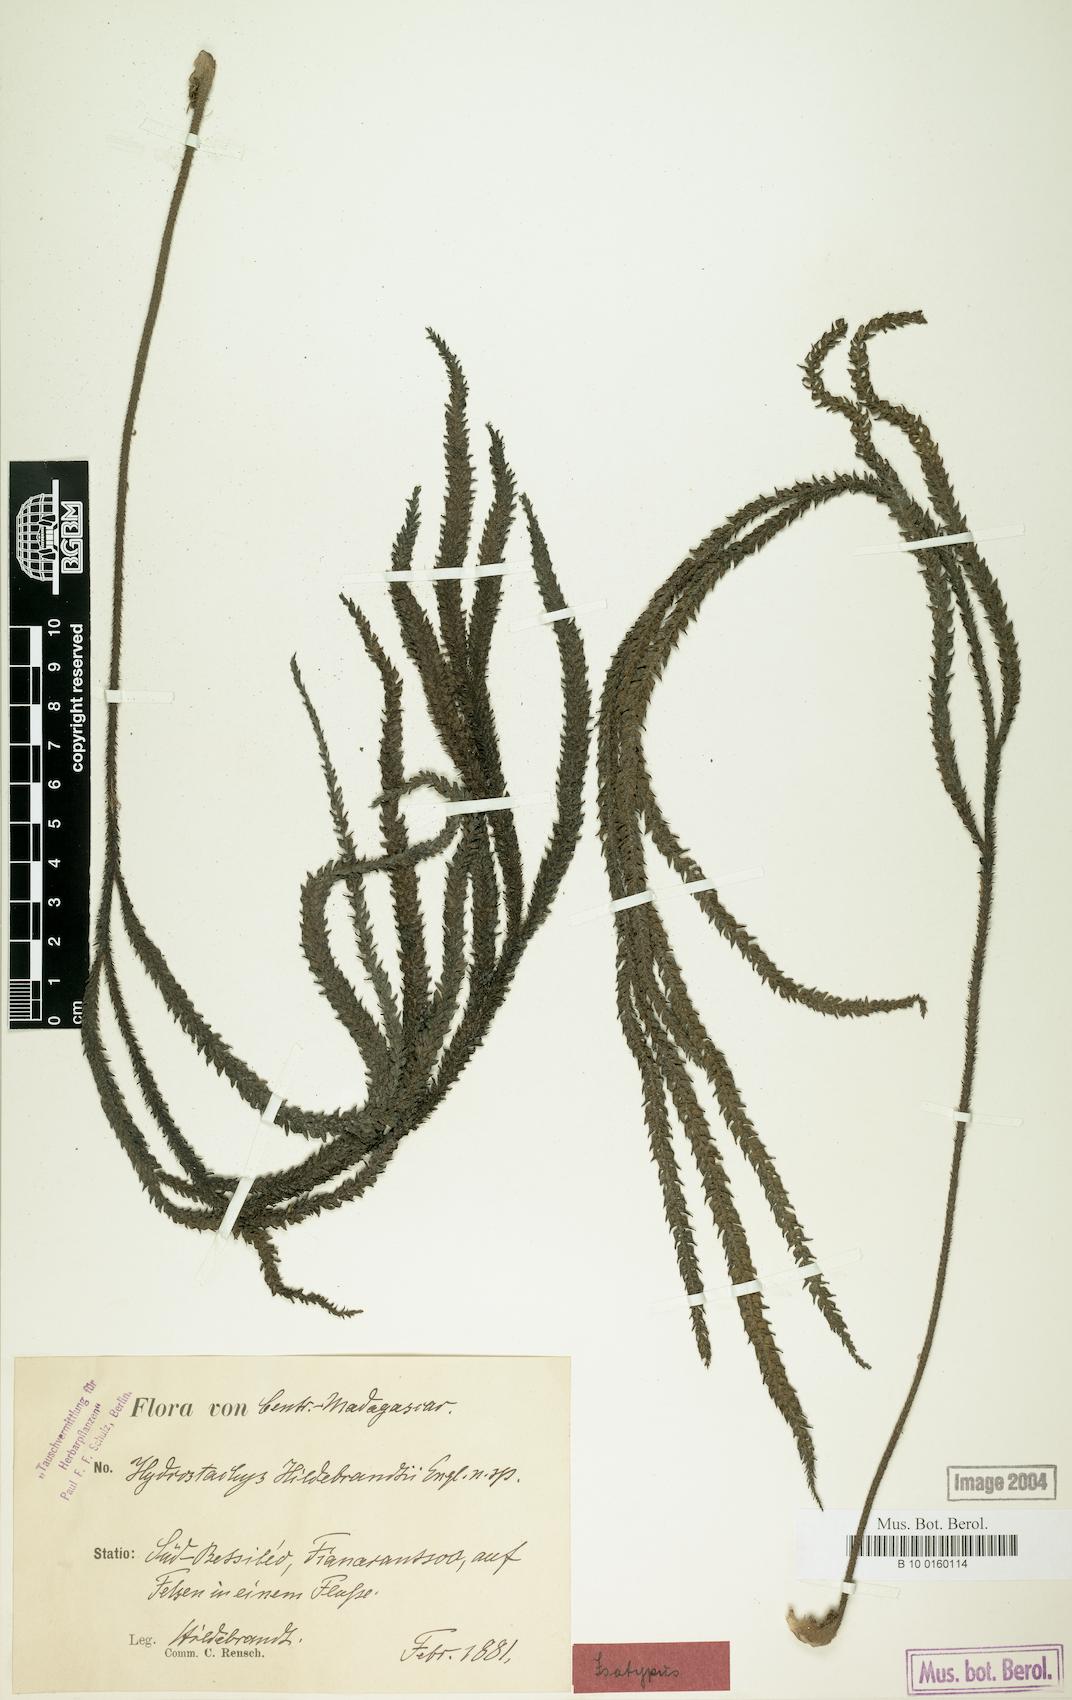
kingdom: Plantae
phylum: Tracheophyta
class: Magnoliopsida
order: Cornales
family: Hydrostachyaceae
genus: Hydrostachys
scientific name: Hydrostachys distichophylla
